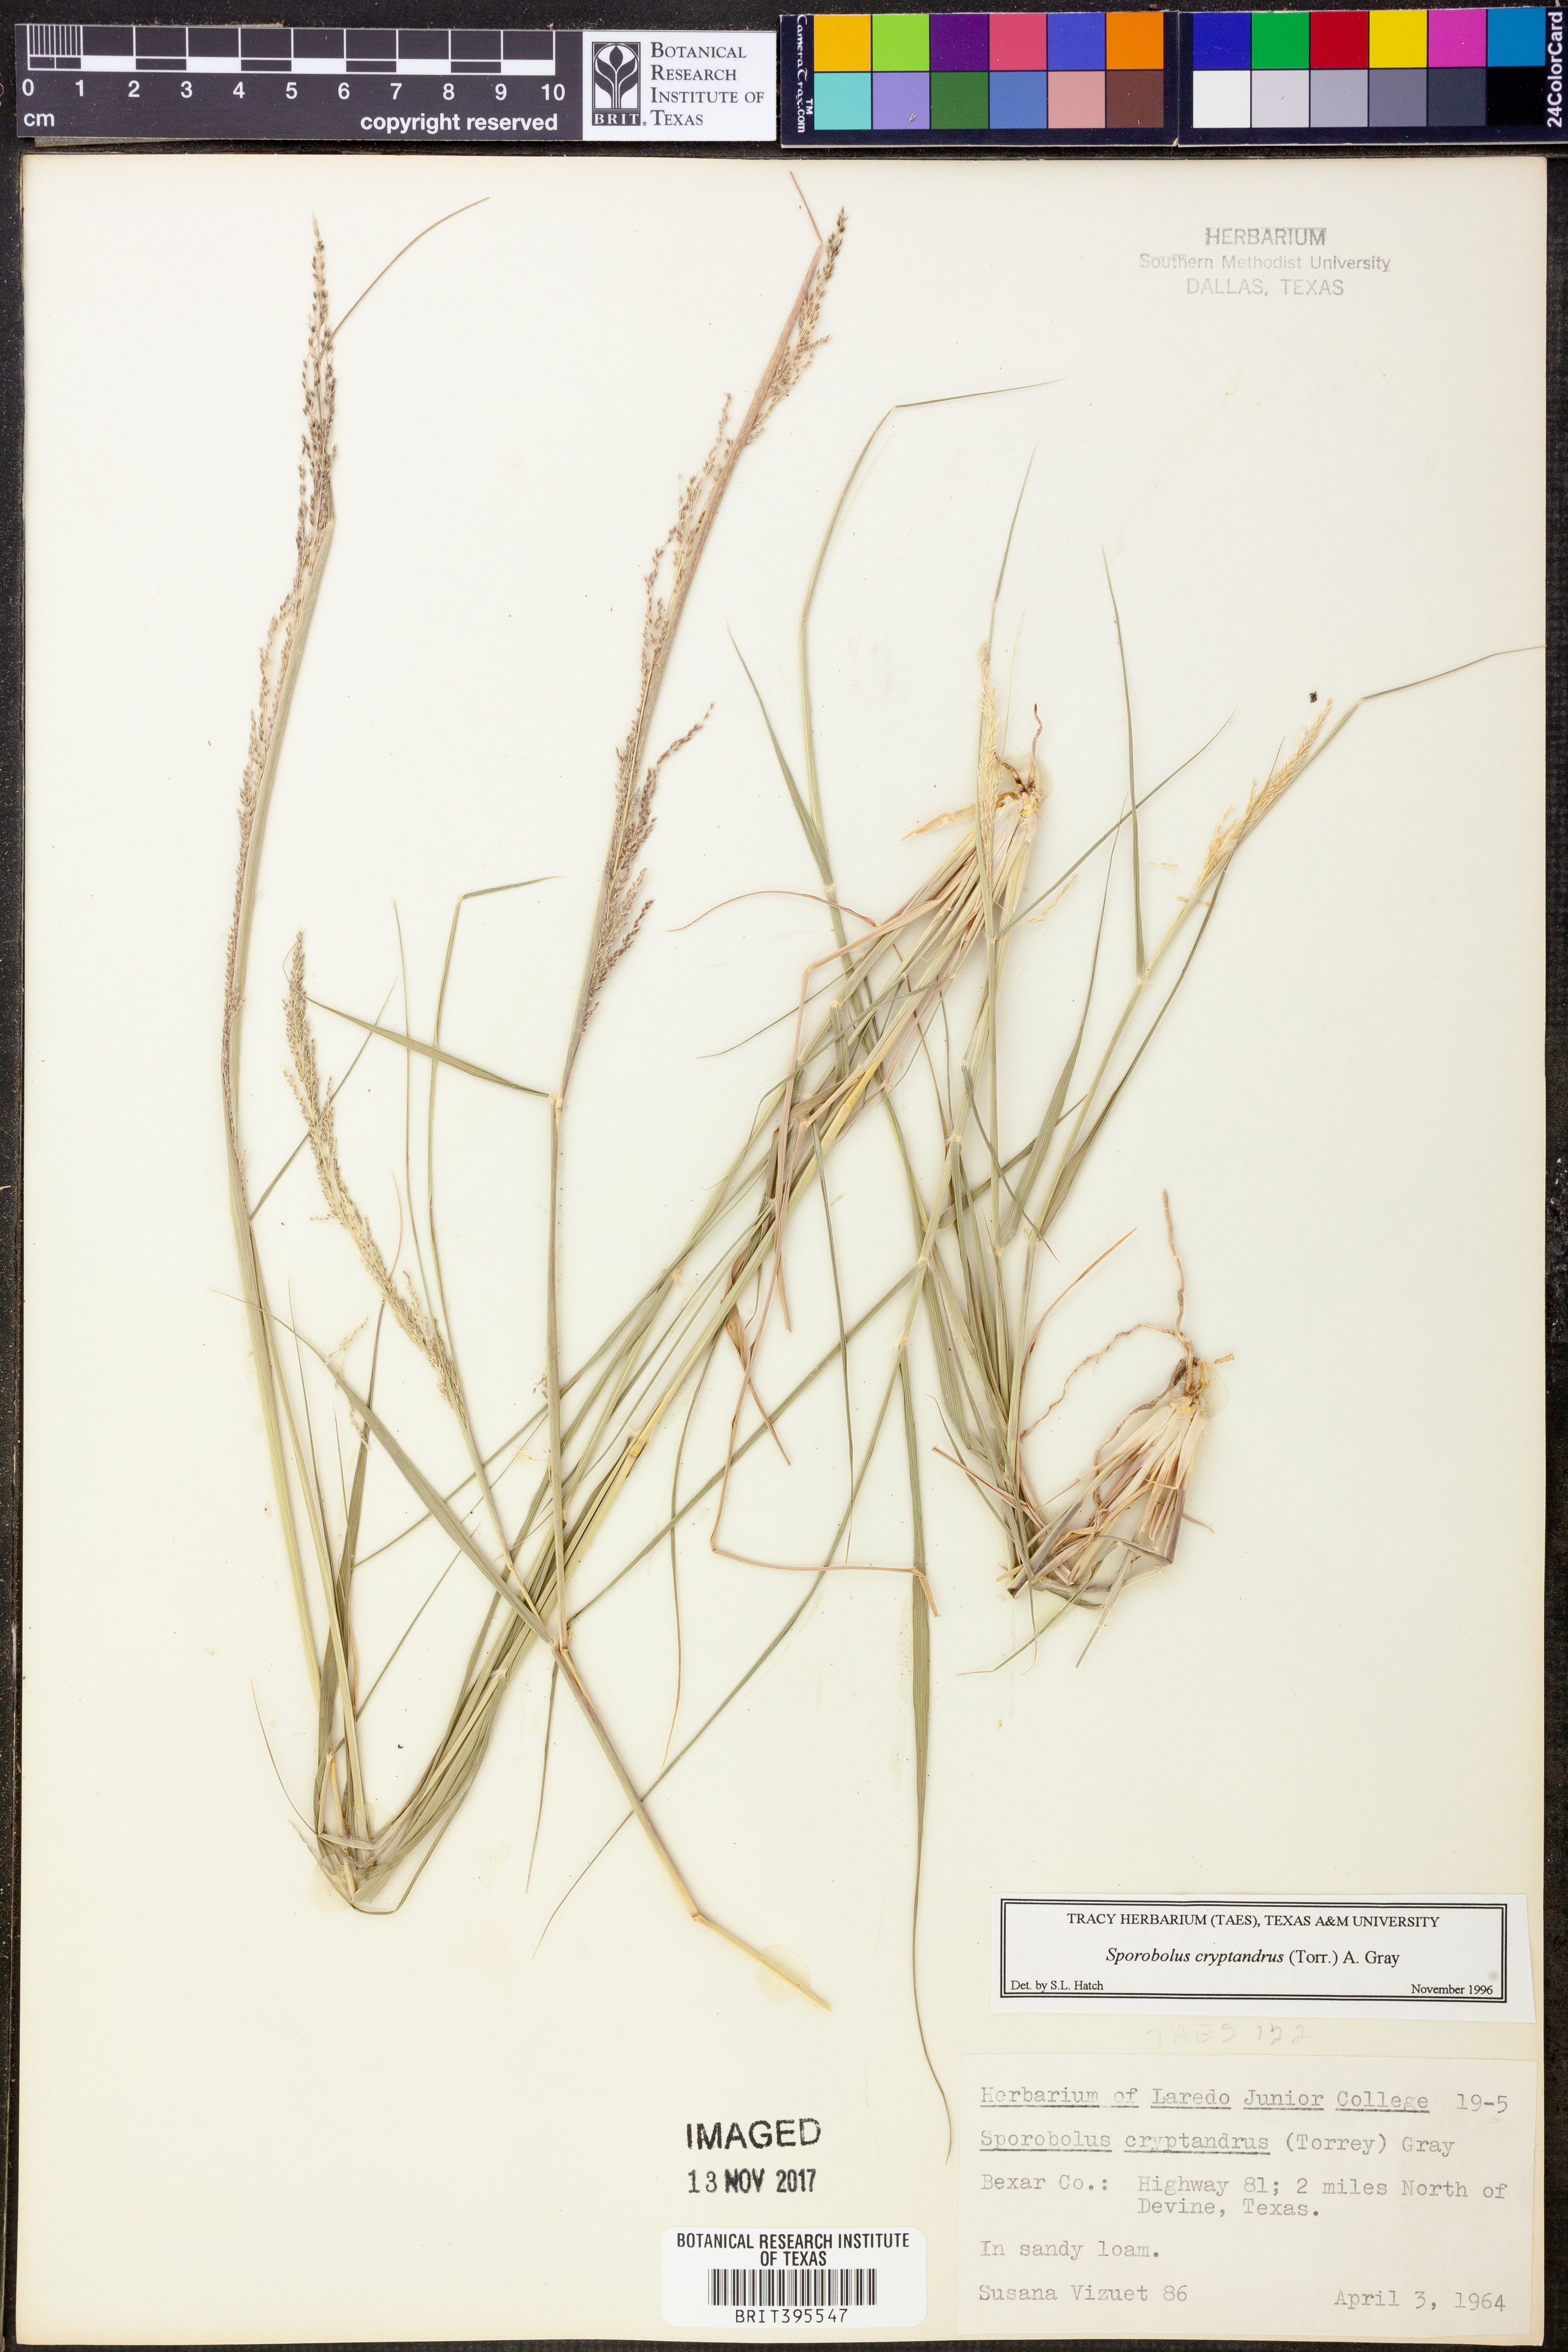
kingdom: Plantae
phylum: Tracheophyta
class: Liliopsida
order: Poales
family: Poaceae
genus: Sporobolus
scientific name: Sporobolus cryptandrus
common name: Sand dropseed
